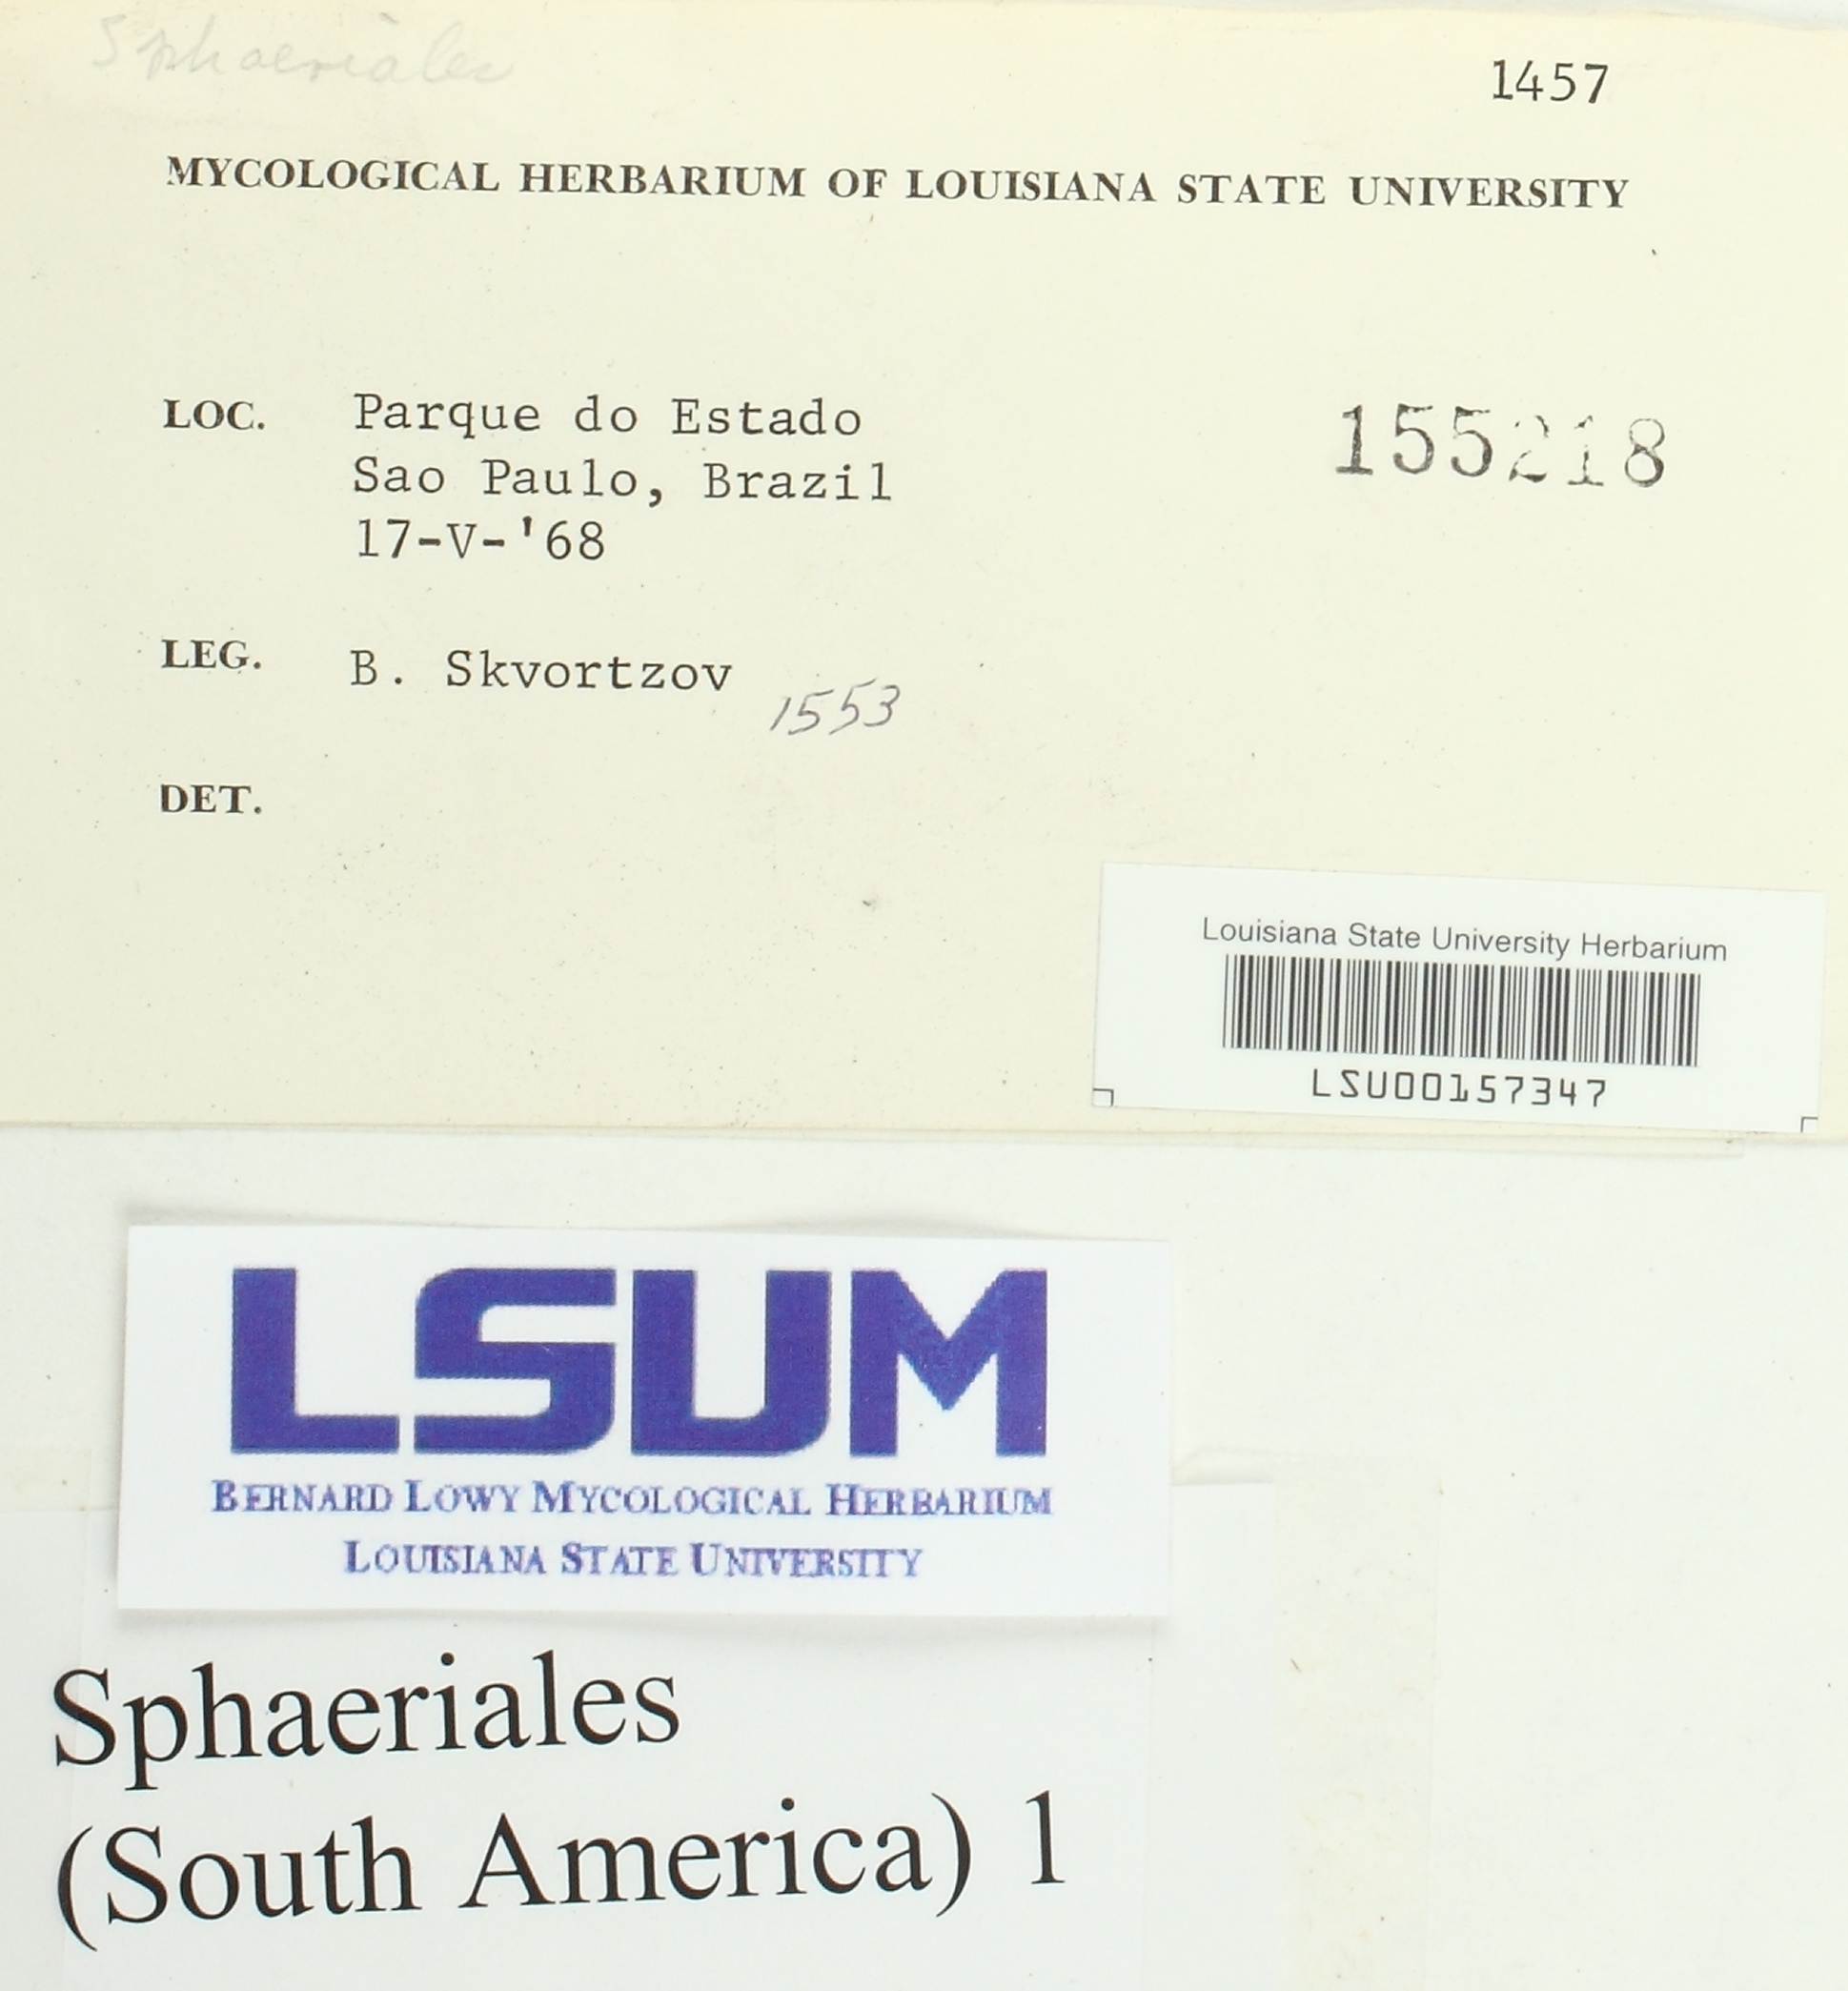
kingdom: Fungi
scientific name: Fungi
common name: Fungi
